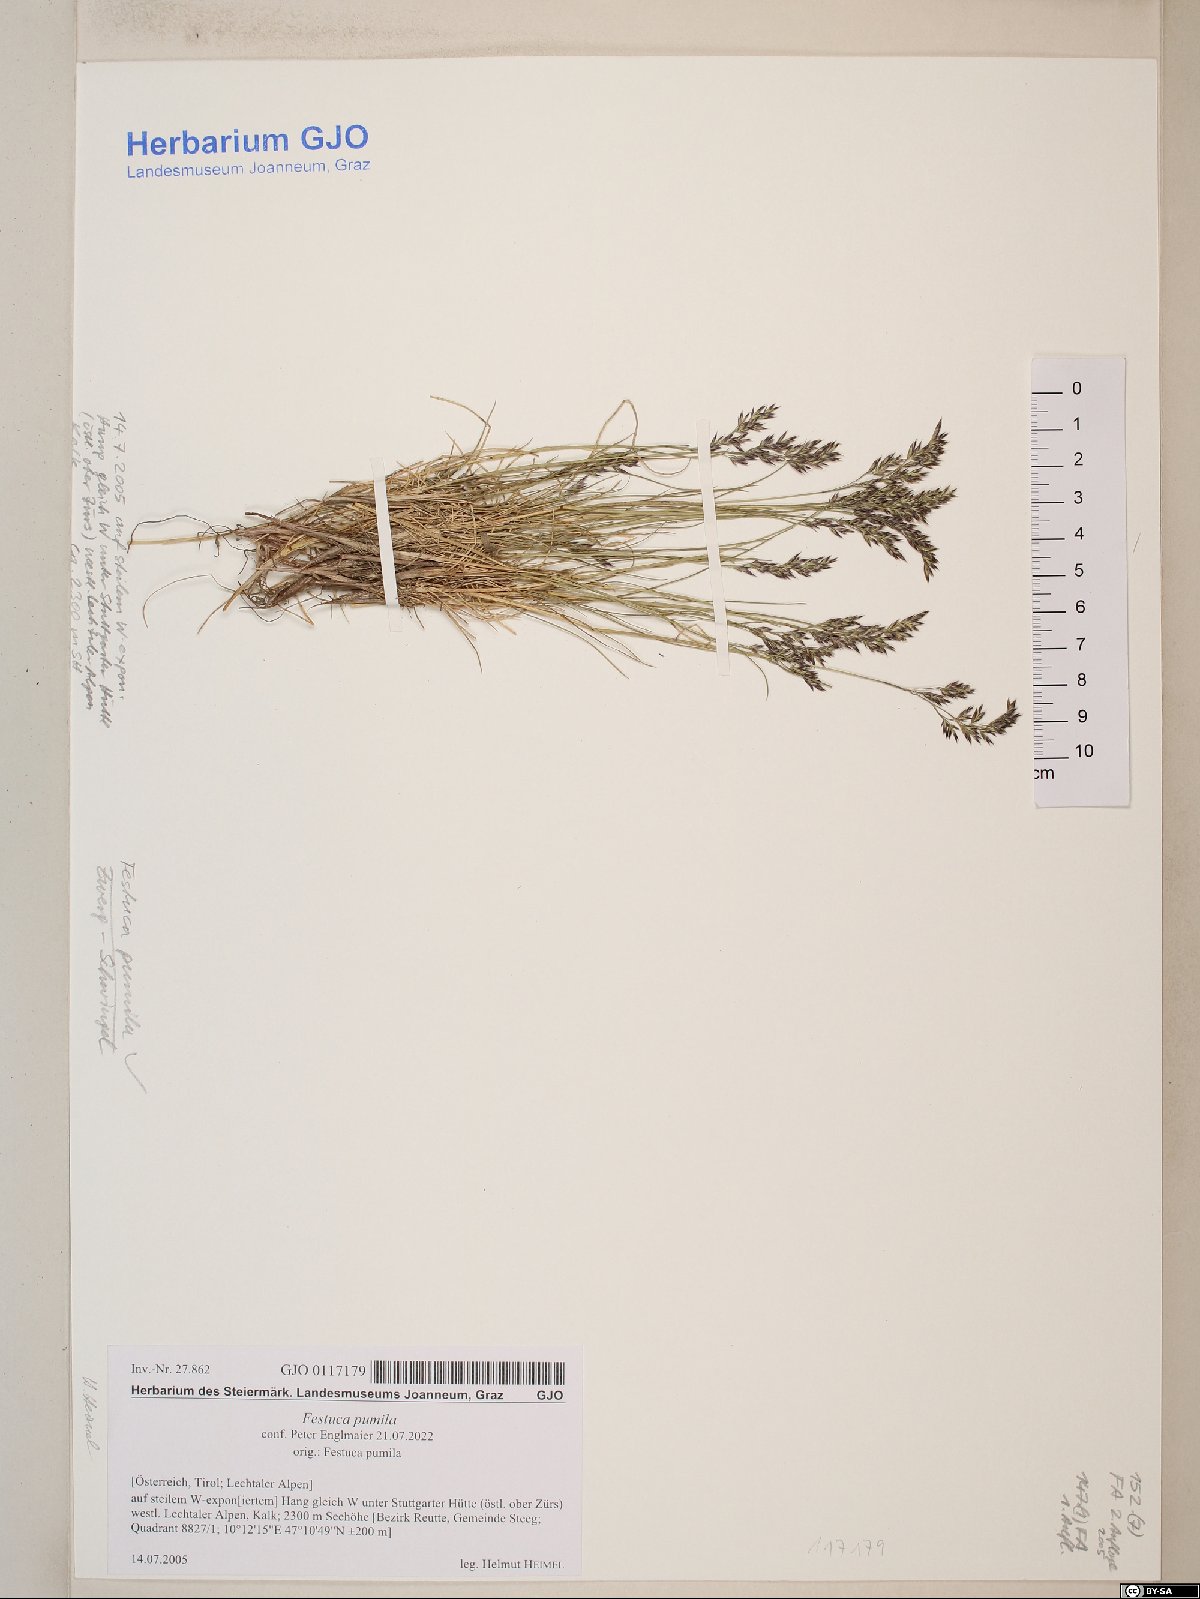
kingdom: Plantae
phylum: Tracheophyta
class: Liliopsida
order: Poales
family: Poaceae
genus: Festuca
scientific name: Festuca quadriflora
